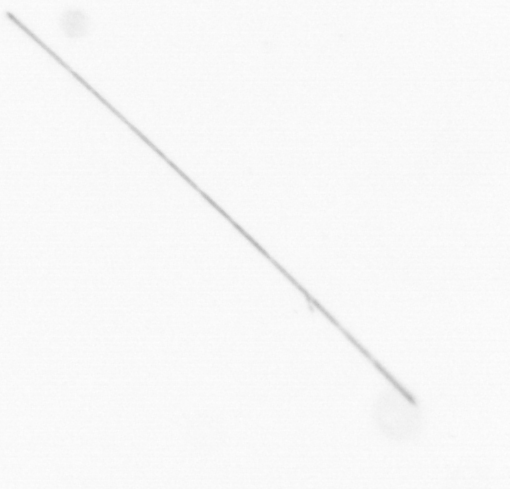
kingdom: Chromista
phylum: Ochrophyta
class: Bacillariophyceae
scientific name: Bacillariophyceae
